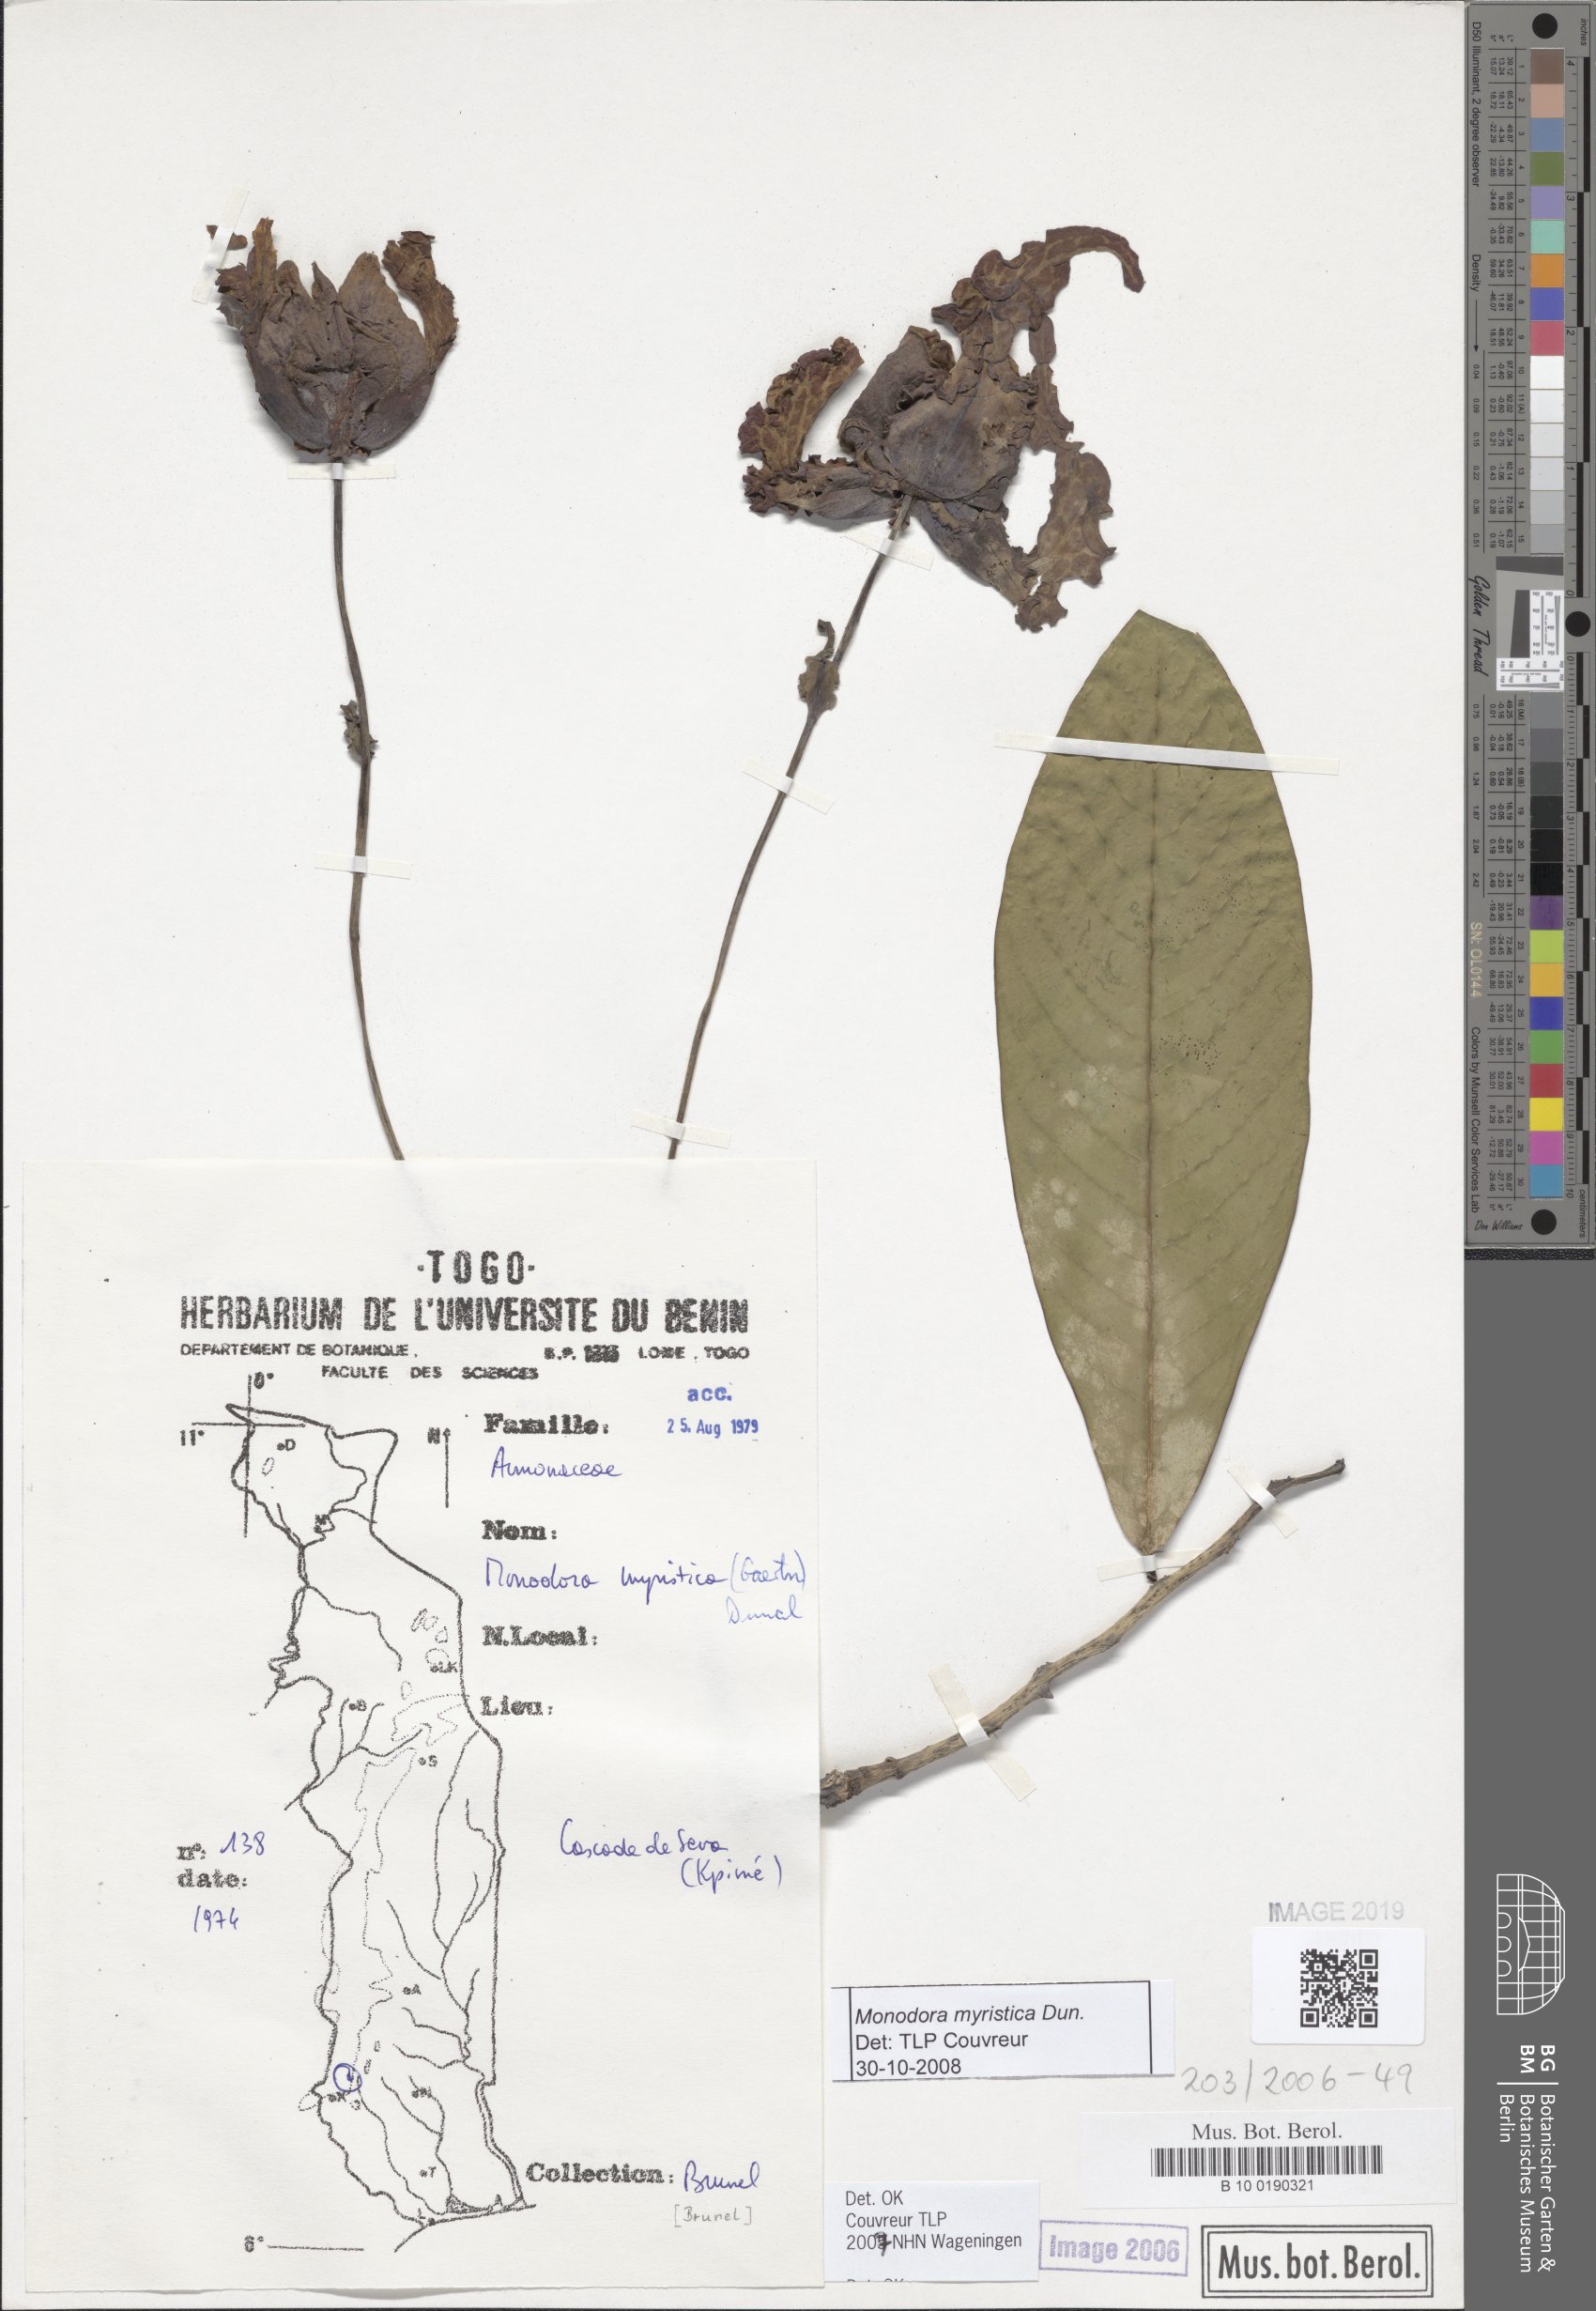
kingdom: Plantae
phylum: Tracheophyta
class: Magnoliopsida
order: Magnoliales
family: Annonaceae
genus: Monodora
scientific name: Monodora myristica
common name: African nutmeg
